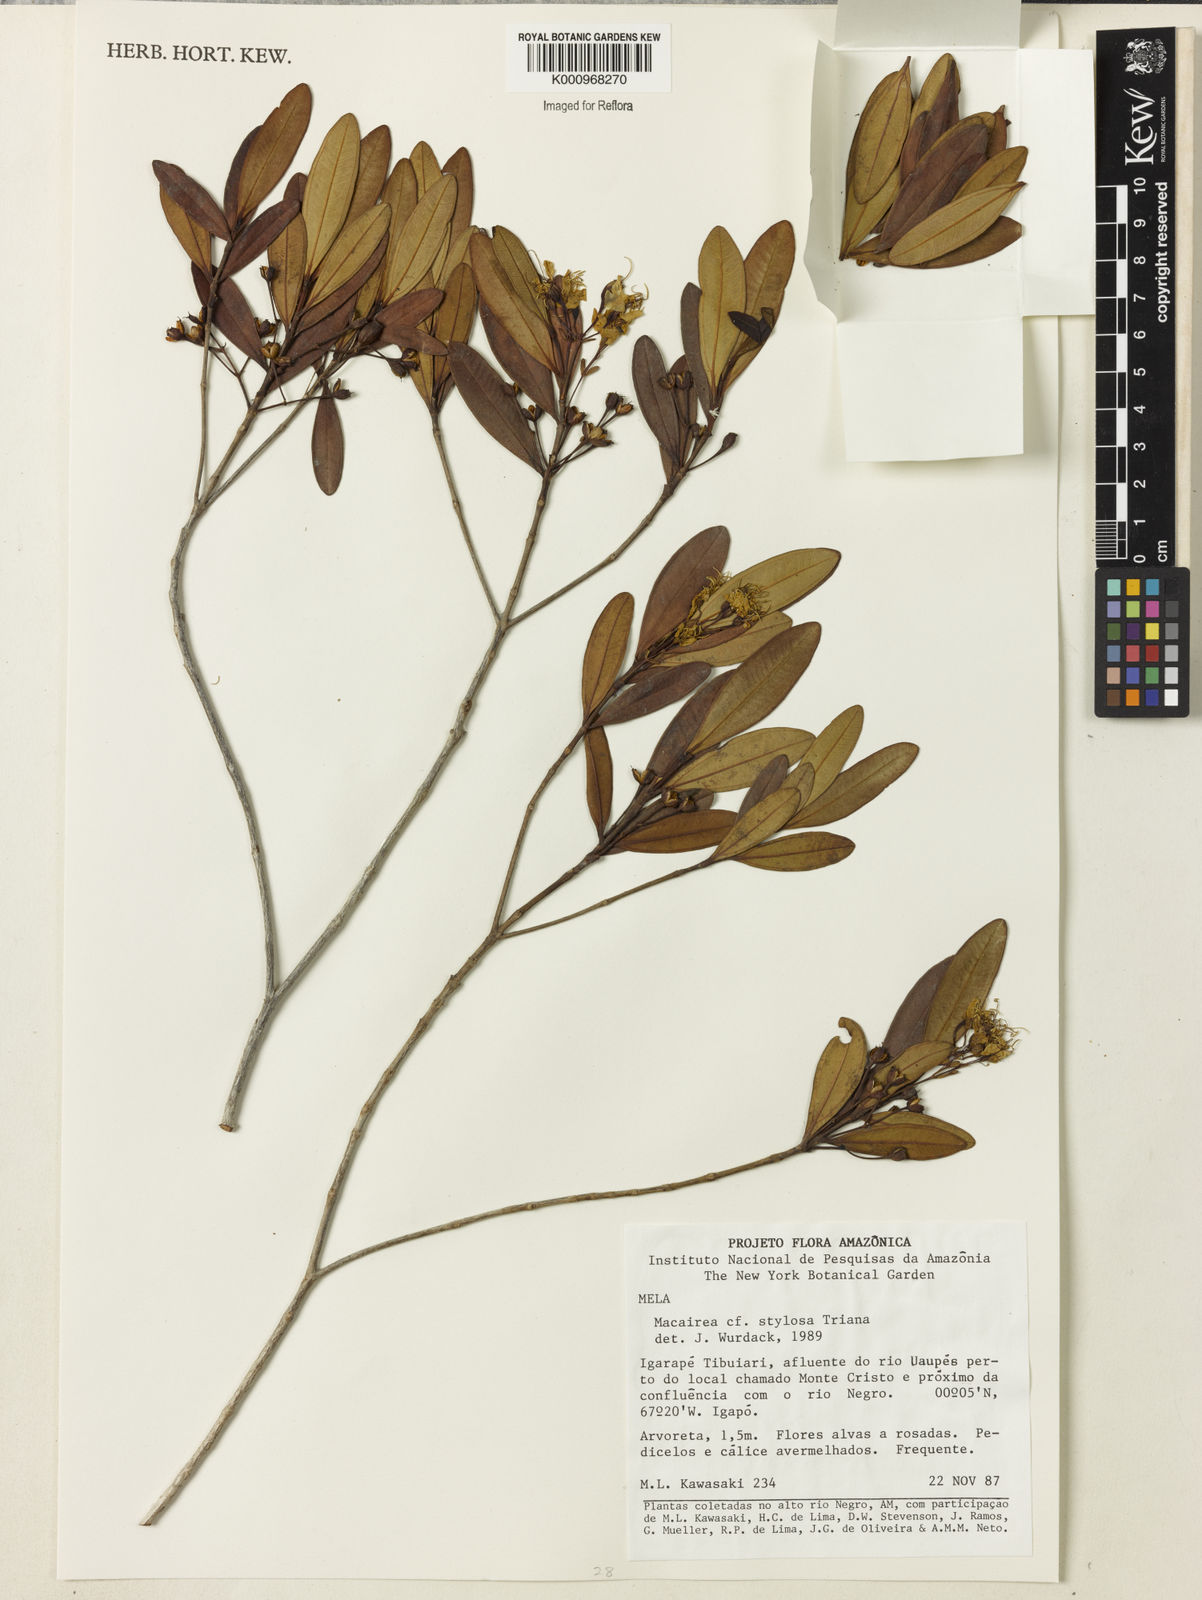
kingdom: Plantae
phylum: Tracheophyta
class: Magnoliopsida
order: Myrtales
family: Melastomataceae
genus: Macairea
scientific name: Macairea stylosa
